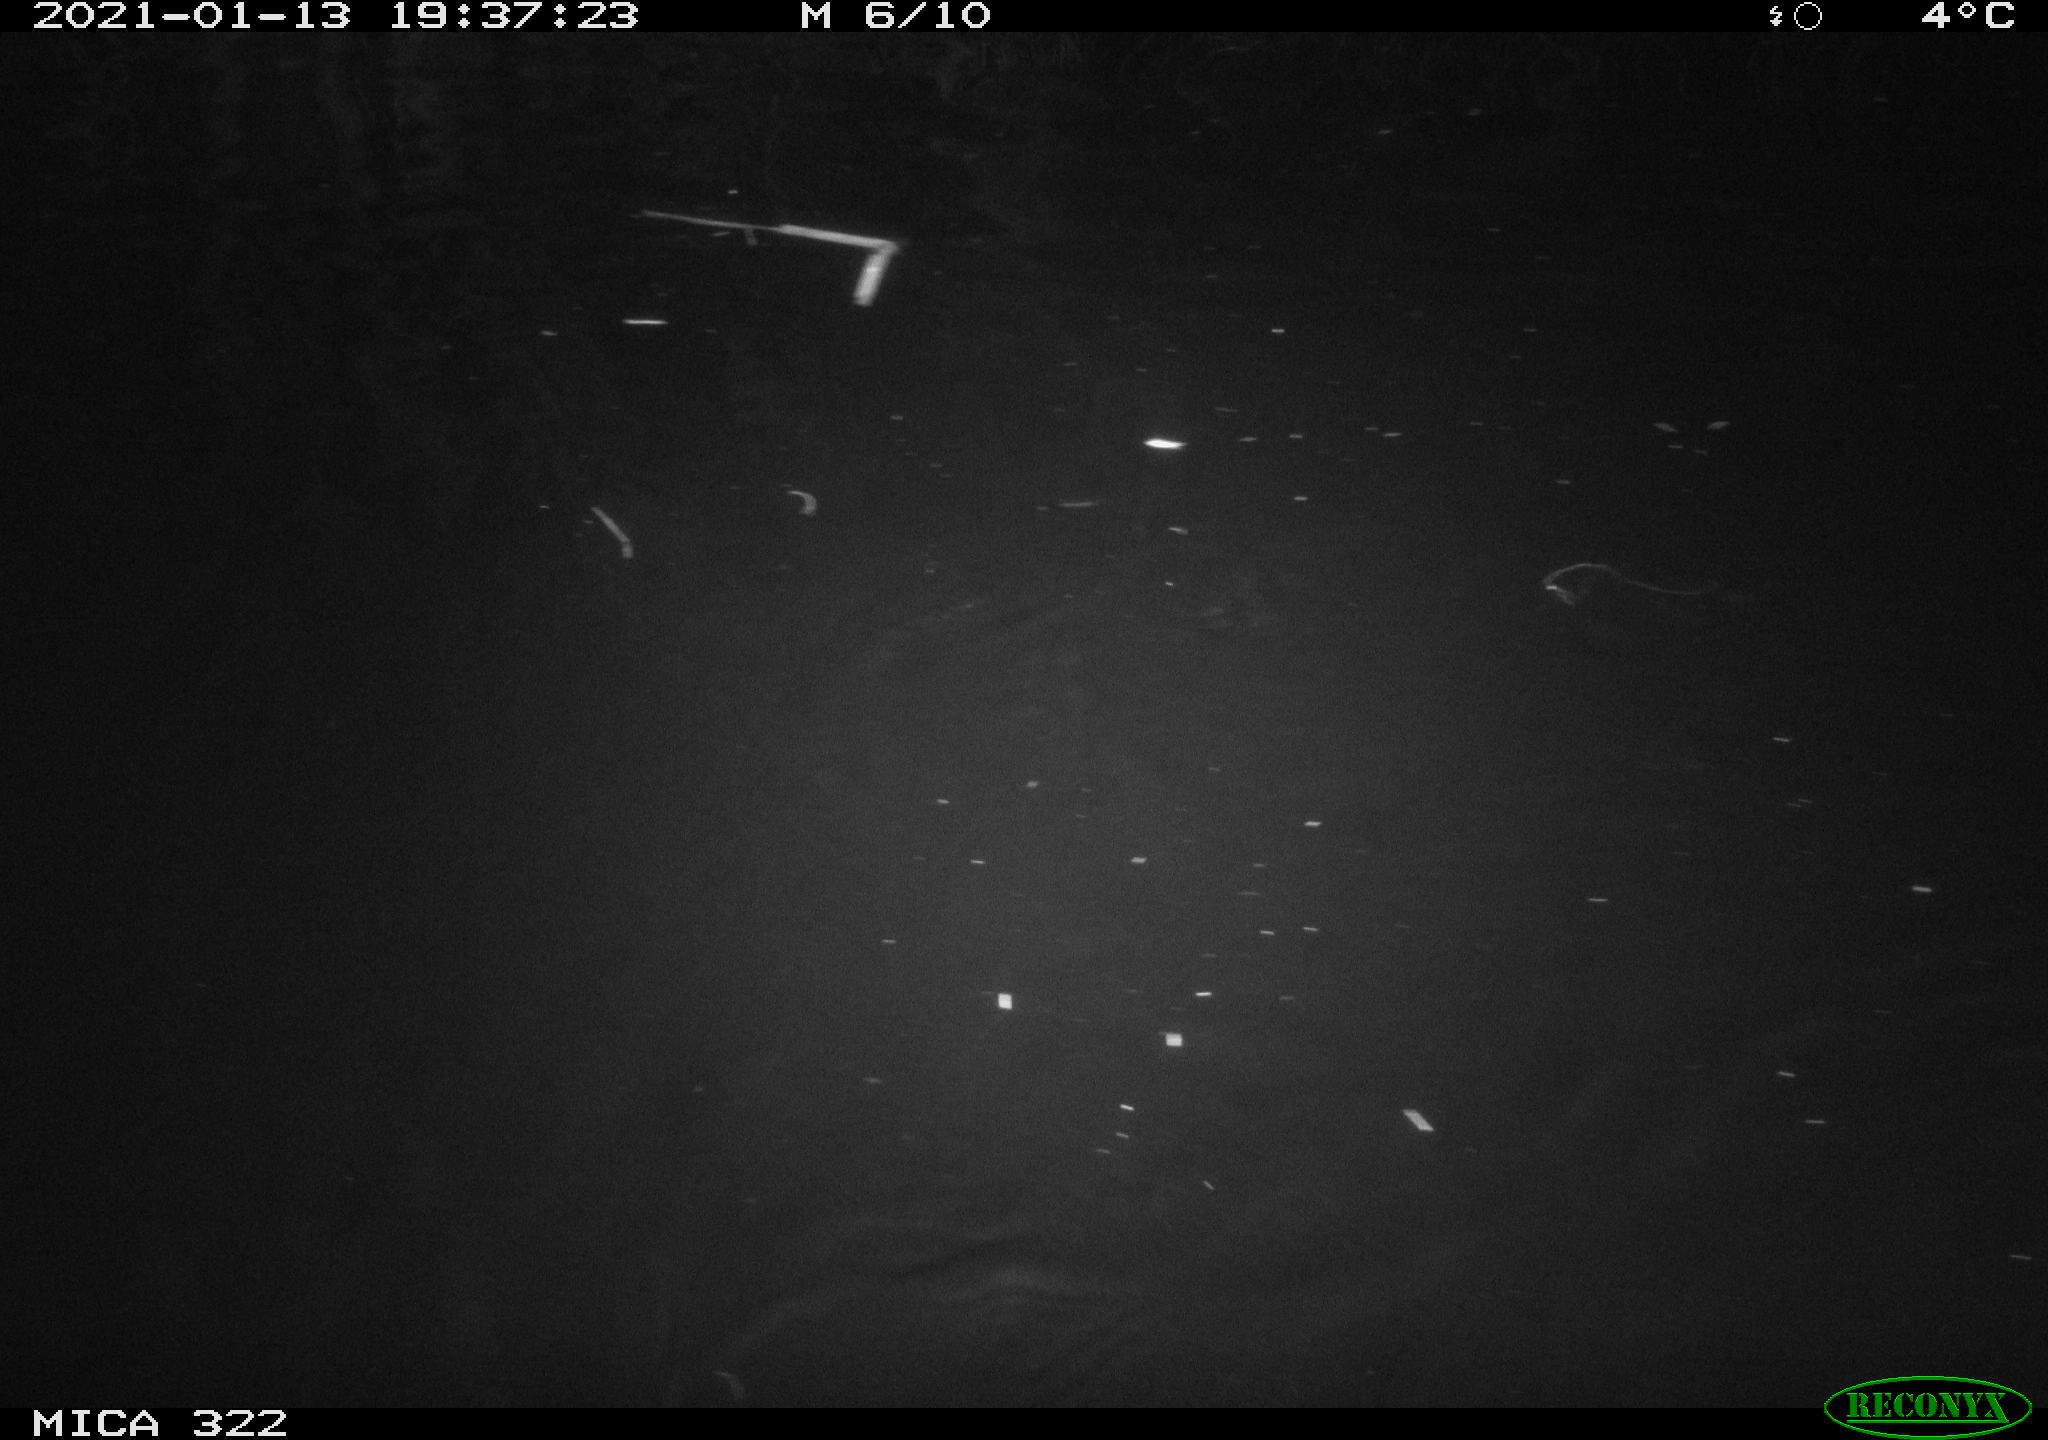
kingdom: Animalia
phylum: Chordata
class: Aves
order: Anseriformes
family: Anatidae
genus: Mareca
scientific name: Mareca strepera
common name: Gadwall
